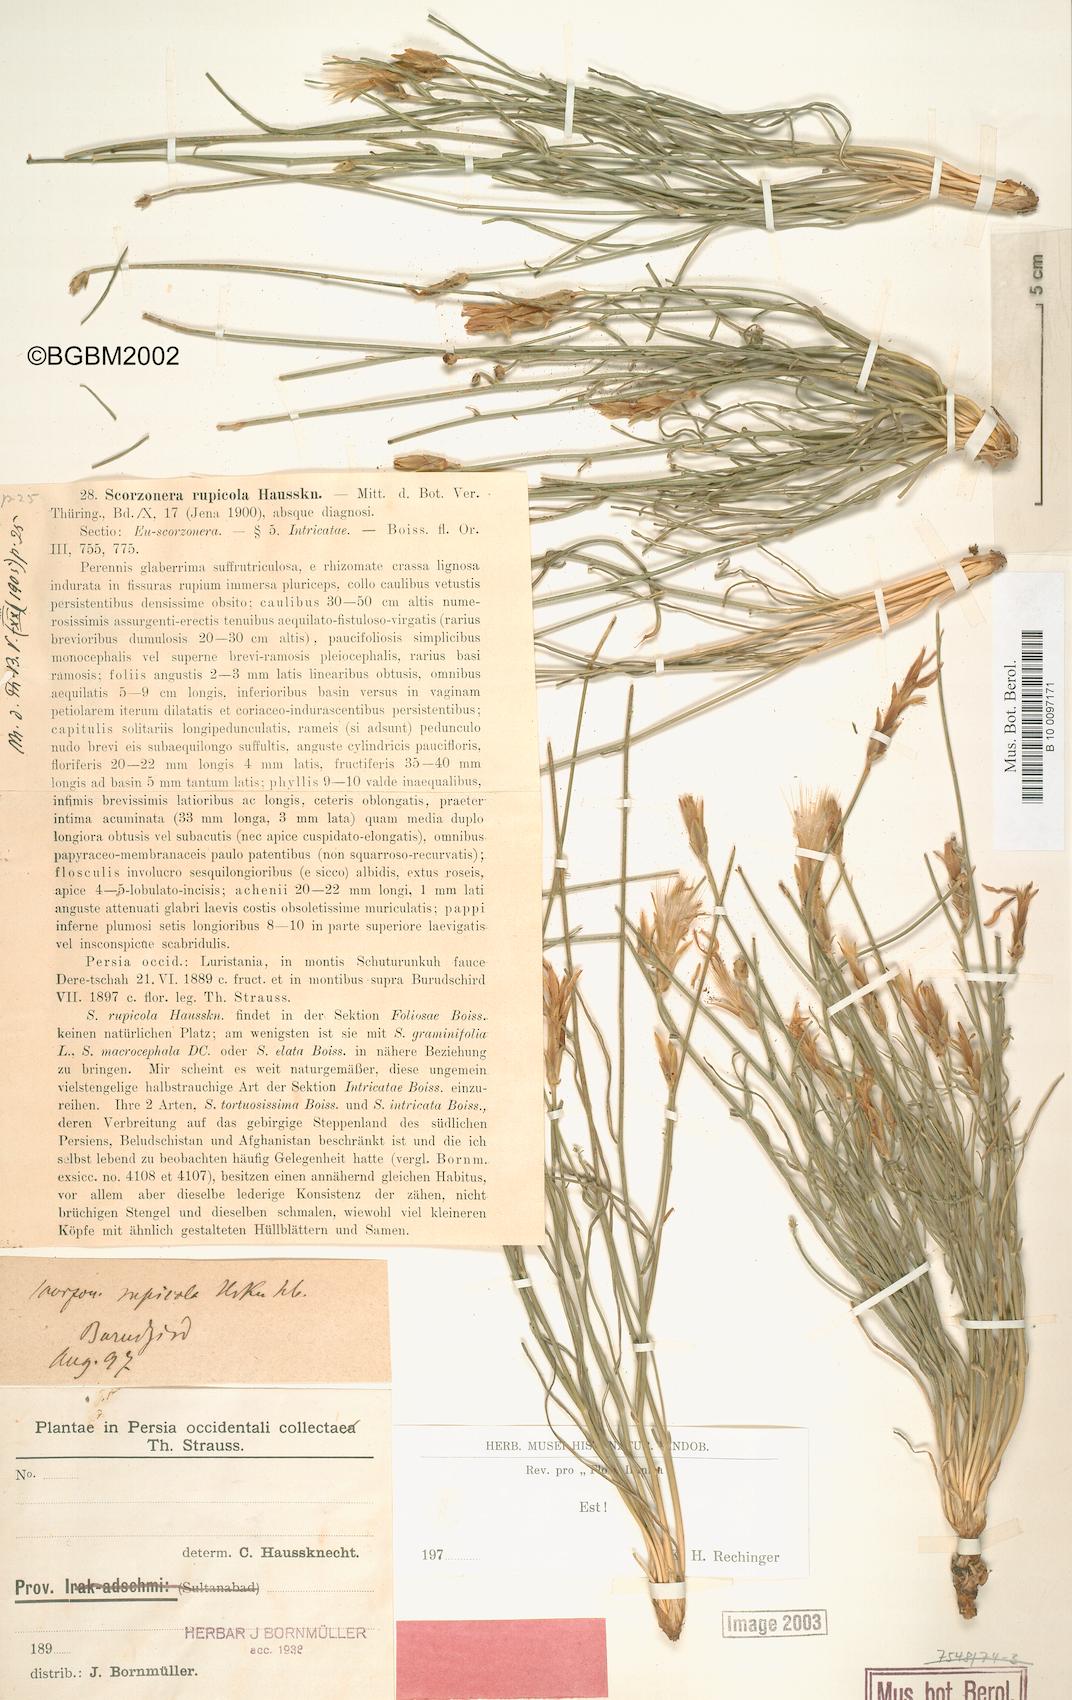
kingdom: Plantae
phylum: Tracheophyta
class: Magnoliopsida
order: Asterales
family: Asteraceae
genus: Scorzonera
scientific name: Scorzonera rupicola
